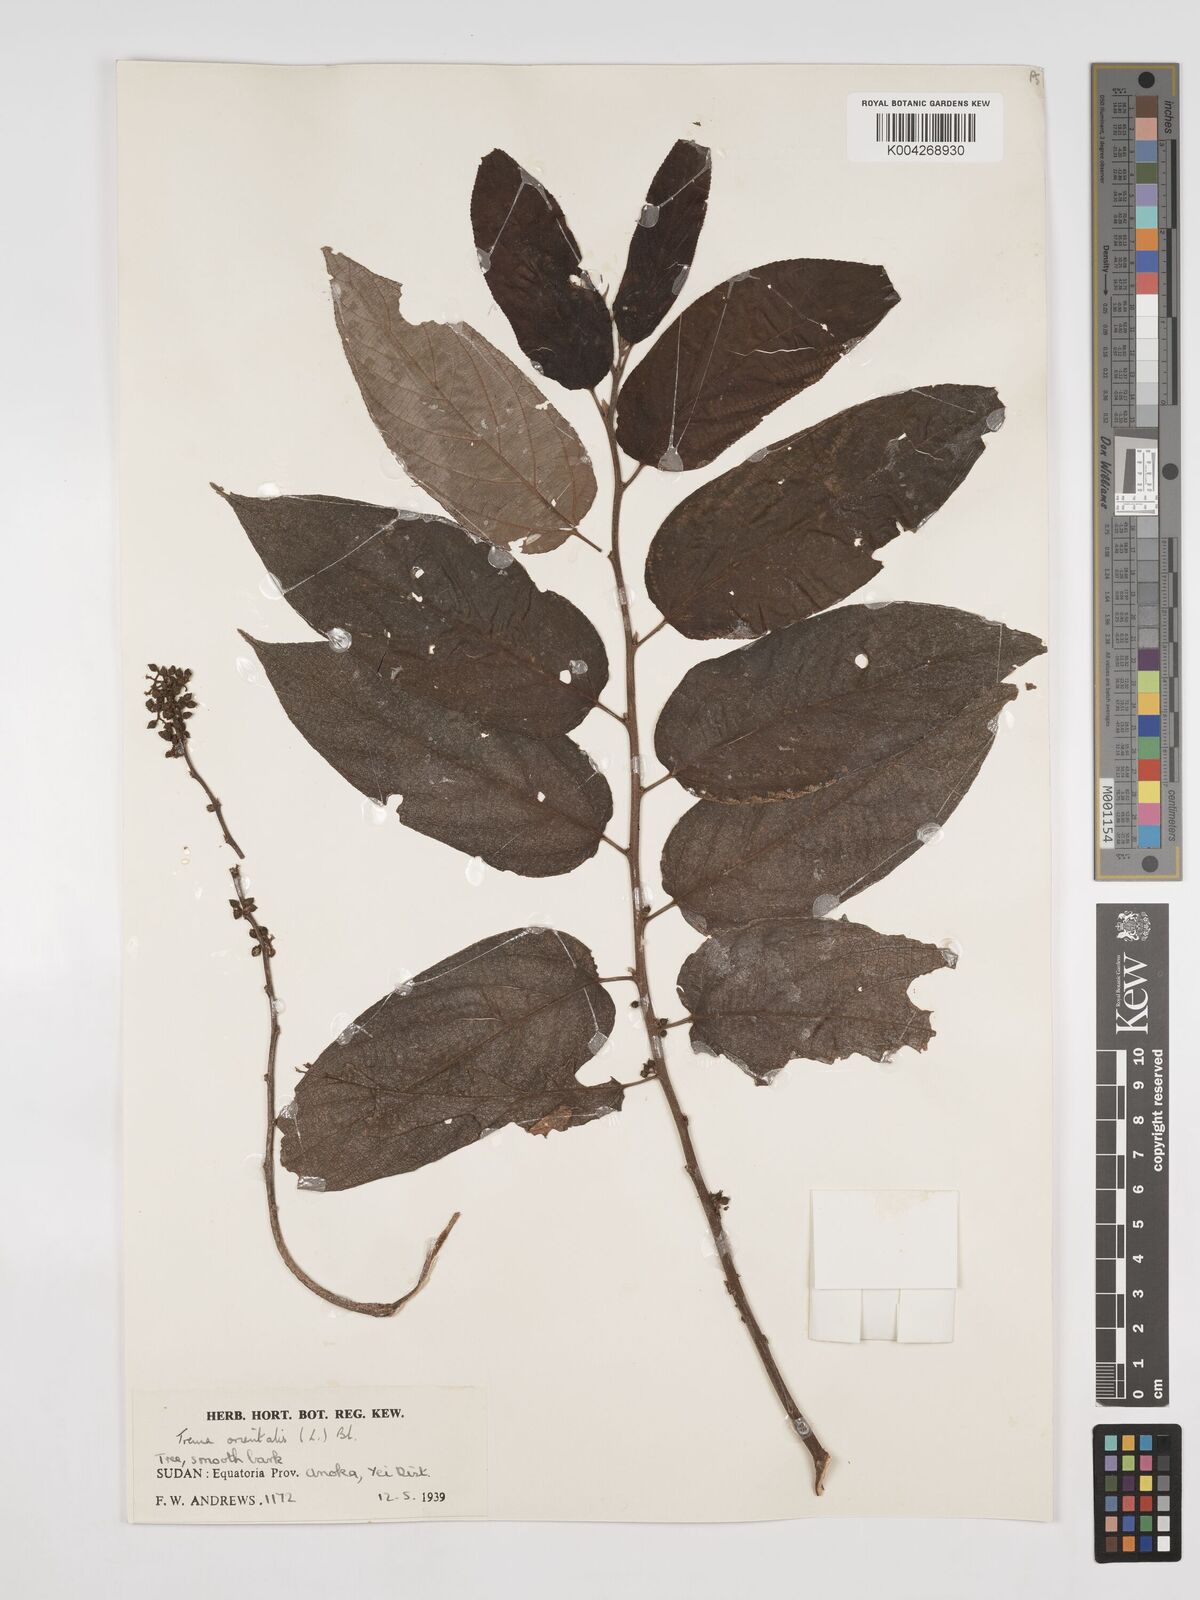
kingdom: Plantae
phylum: Tracheophyta
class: Magnoliopsida
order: Rosales
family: Cannabaceae
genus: Trema
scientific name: Trema orientale
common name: Indian charcoal tree
